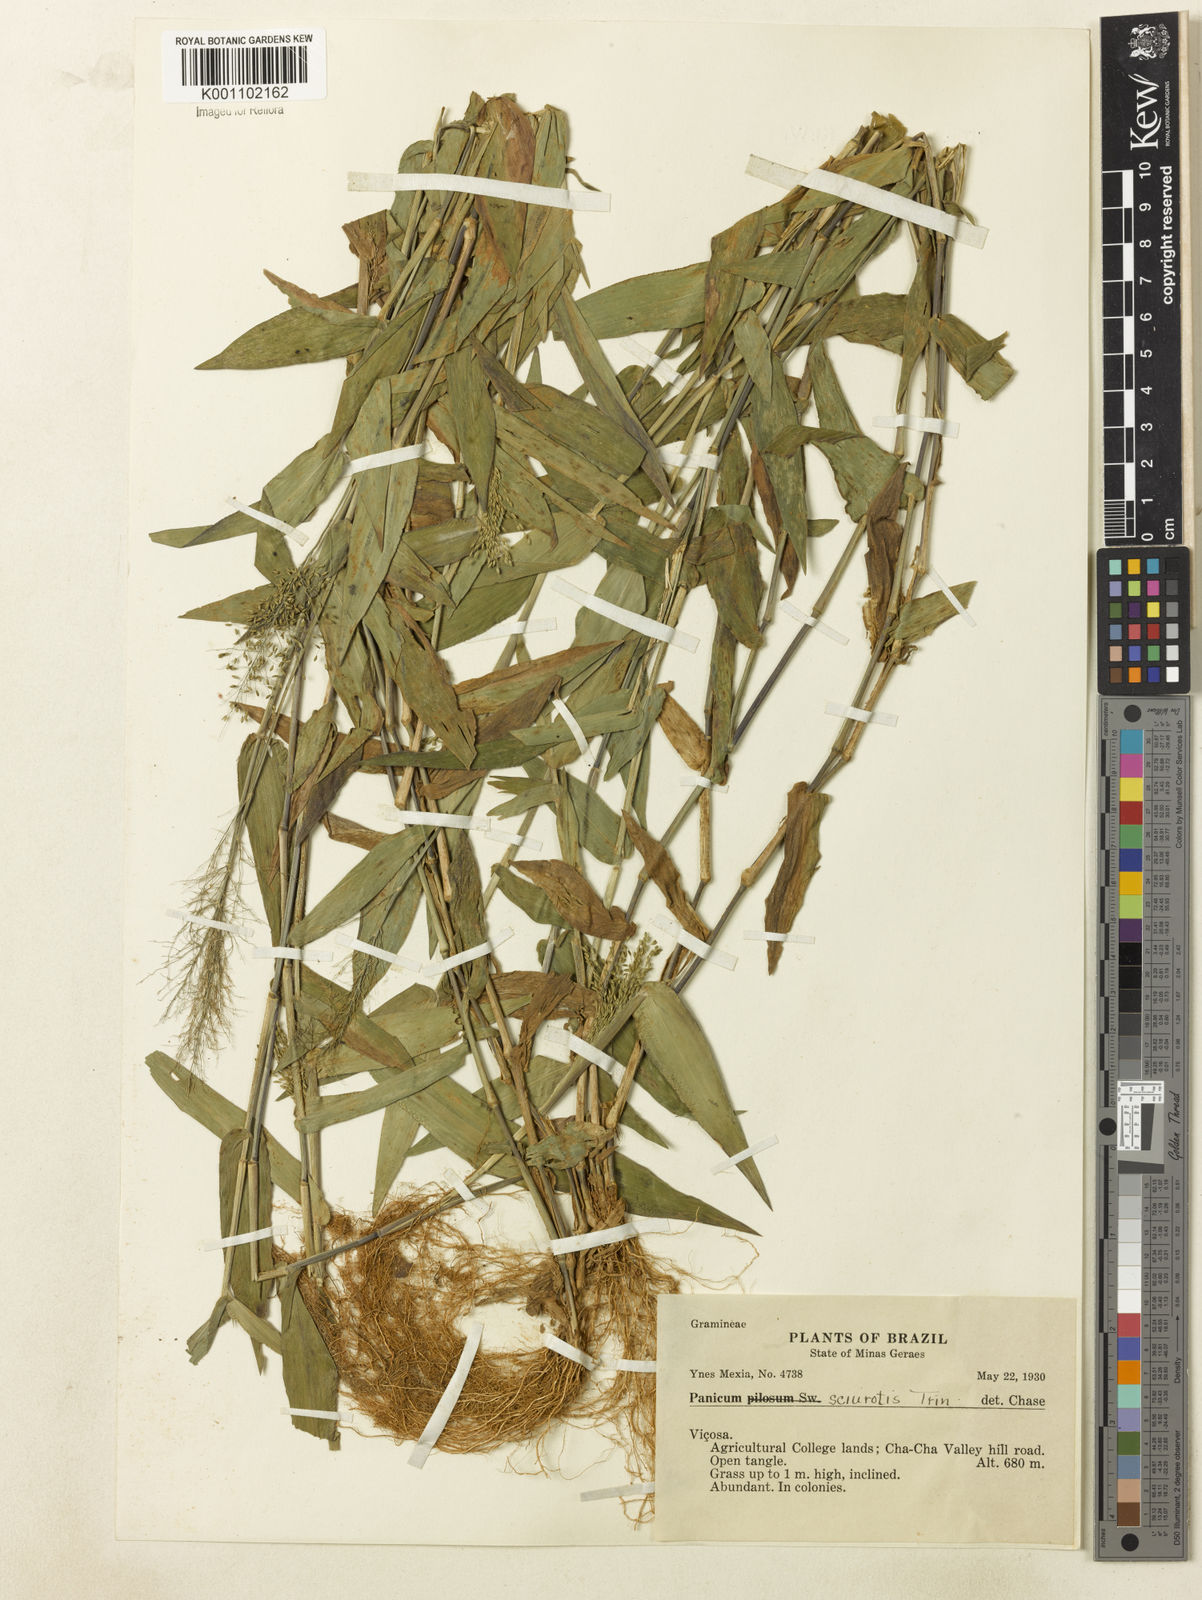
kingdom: Plantae
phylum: Tracheophyta
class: Liliopsida
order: Poales
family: Poaceae
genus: Dichanthelium
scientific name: Dichanthelium sciurotoides
